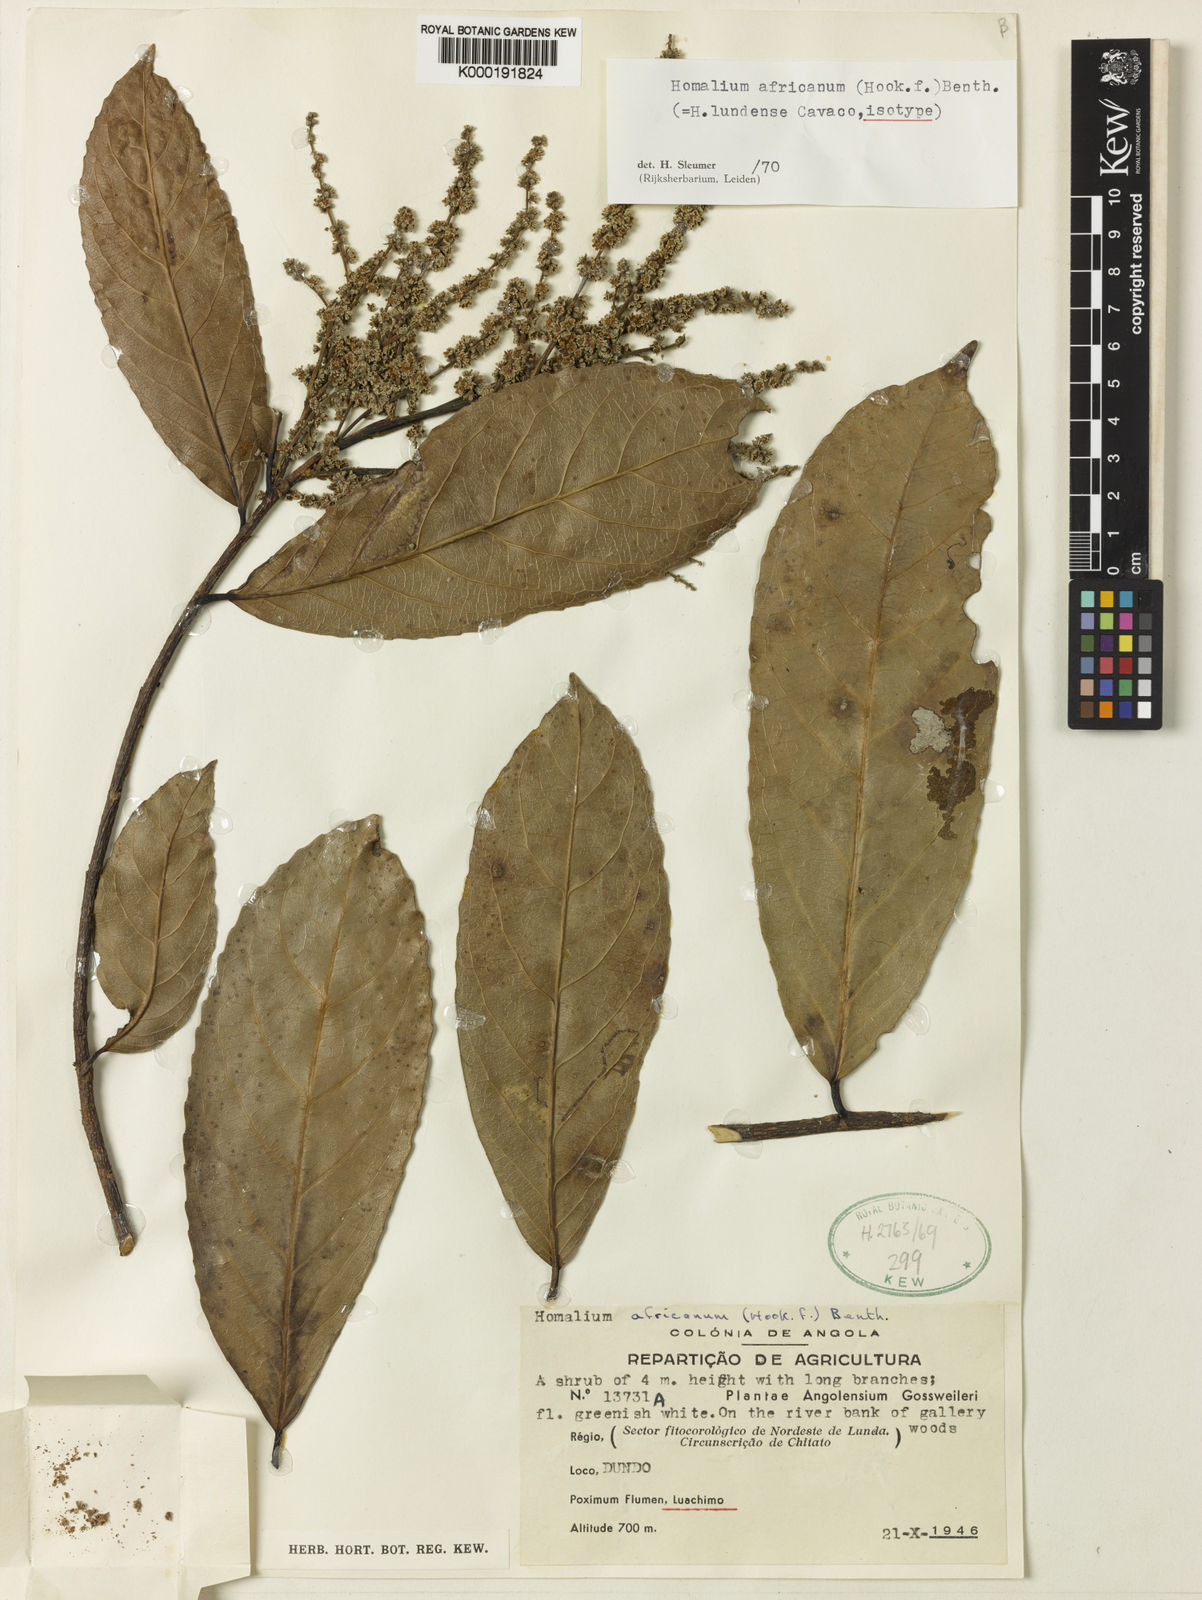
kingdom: Plantae
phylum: Tracheophyta
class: Magnoliopsida
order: Malpighiales
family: Salicaceae
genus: Homalium
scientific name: Homalium africanum
